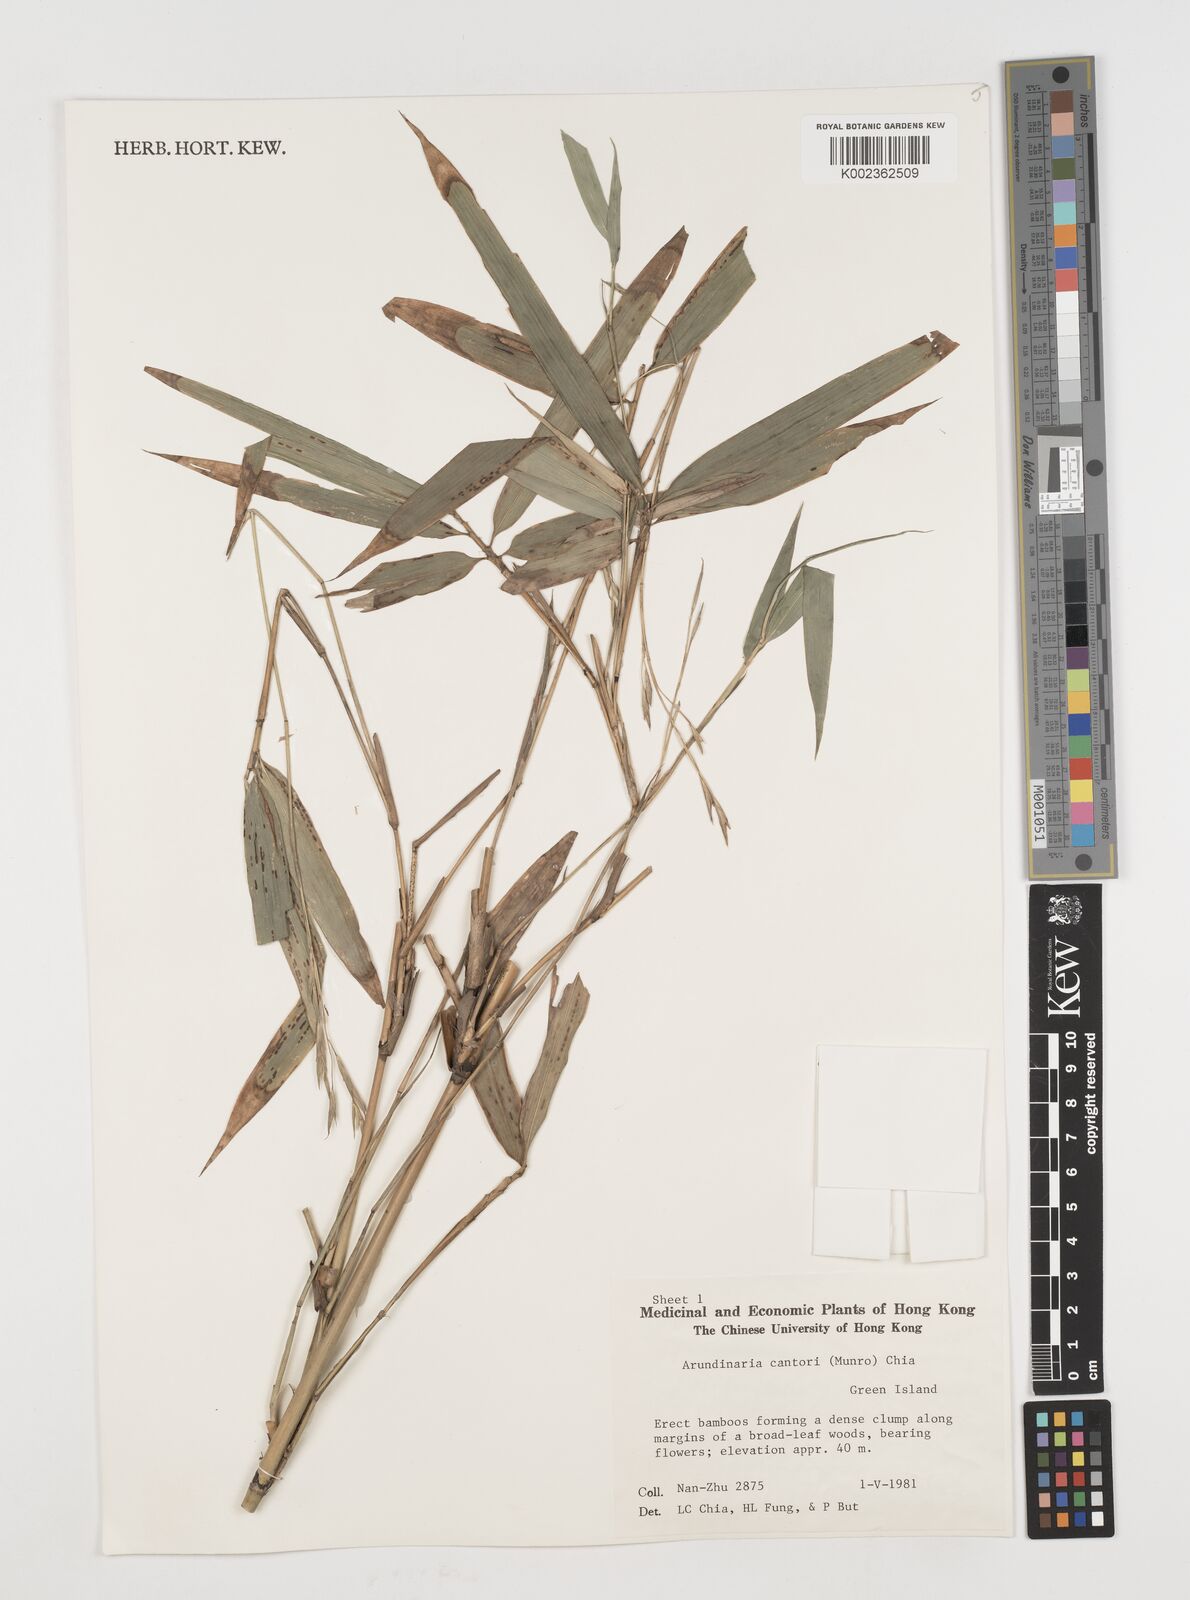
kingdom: Plantae
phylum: Tracheophyta
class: Liliopsida
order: Poales
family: Poaceae
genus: Pseudosasa
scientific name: Pseudosasa cantorii
